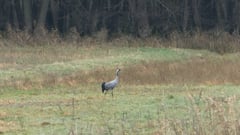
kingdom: Animalia
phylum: Chordata
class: Aves
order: Gruiformes
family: Gruidae
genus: Grus
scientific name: Grus grus
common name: Common crane
